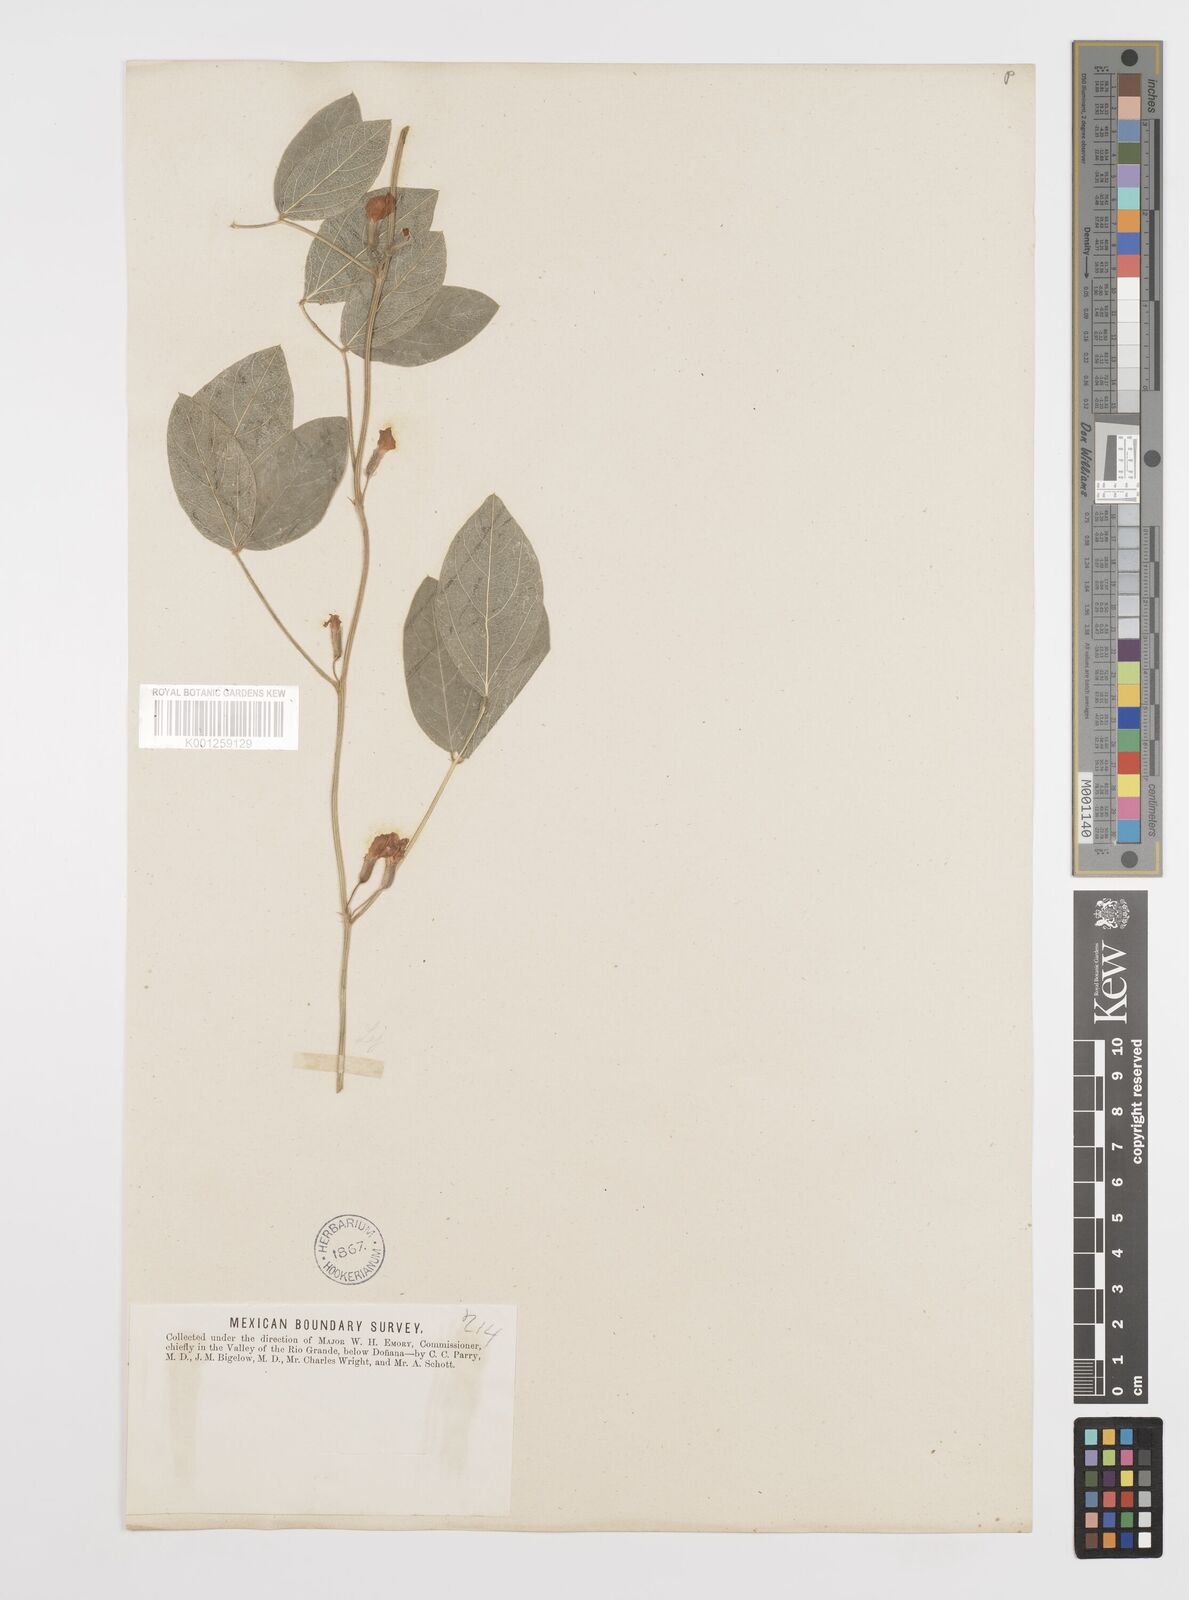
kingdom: Plantae
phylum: Tracheophyta
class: Magnoliopsida
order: Fabales
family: Fabaceae
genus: Cologania
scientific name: Cologania
